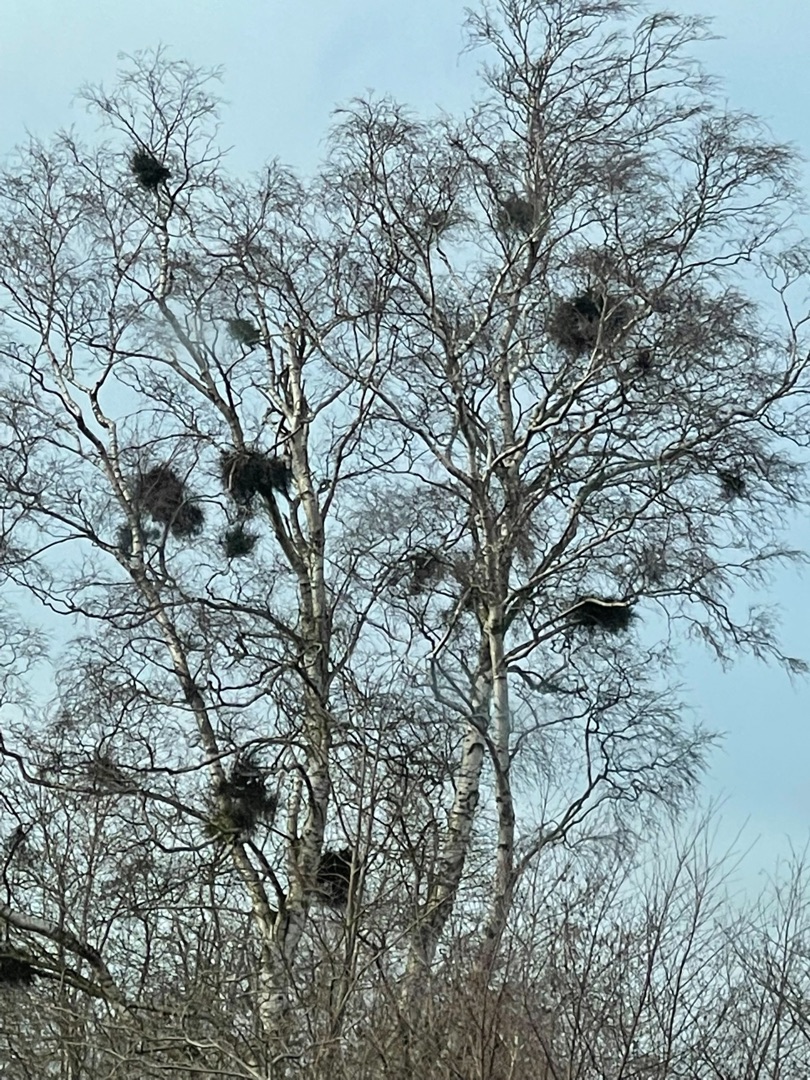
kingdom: Fungi
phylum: Ascomycota
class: Taphrinomycetes
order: Taphrinales
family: Taphrinaceae
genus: Taphrina
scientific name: Taphrina betulina
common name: Hekse-sækdug
